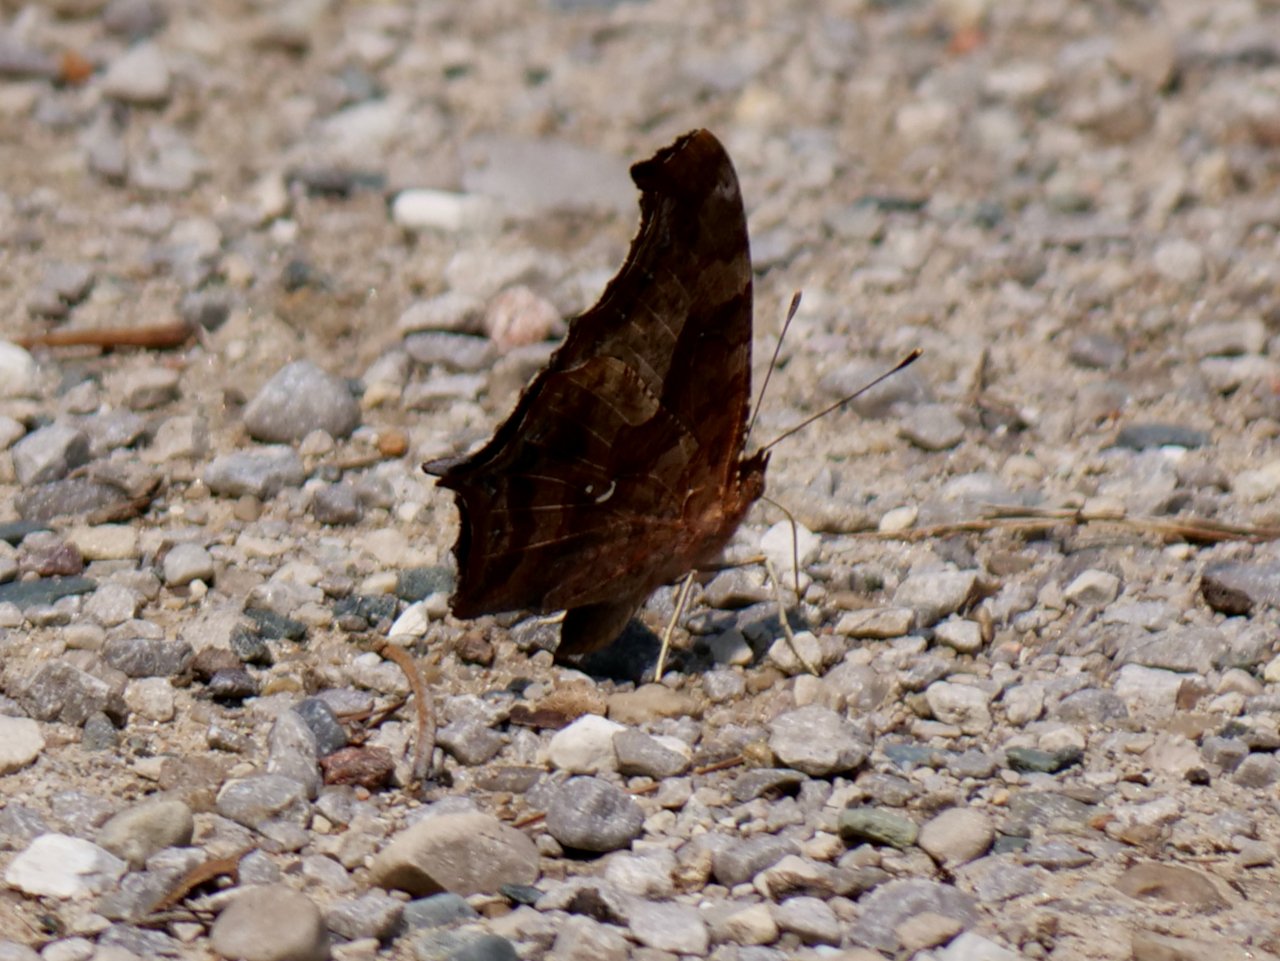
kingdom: Animalia
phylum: Arthropoda
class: Insecta
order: Lepidoptera
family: Nymphalidae
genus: Polygonia
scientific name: Polygonia interrogationis
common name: Question Mark
